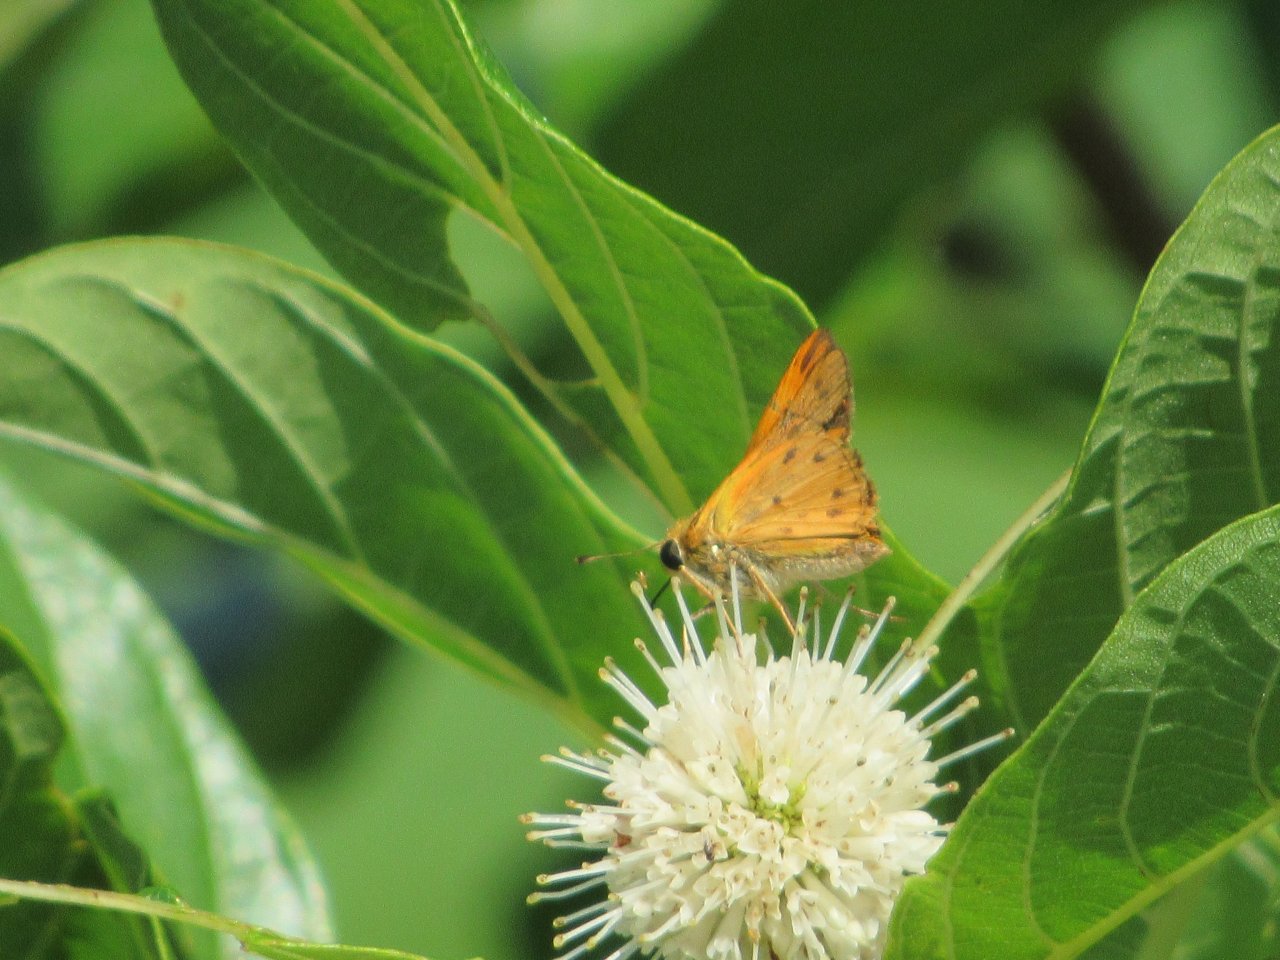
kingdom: Animalia
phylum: Arthropoda
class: Insecta
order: Lepidoptera
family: Hesperiidae
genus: Hylephila
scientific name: Hylephila phyleus
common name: Fiery Skipper
